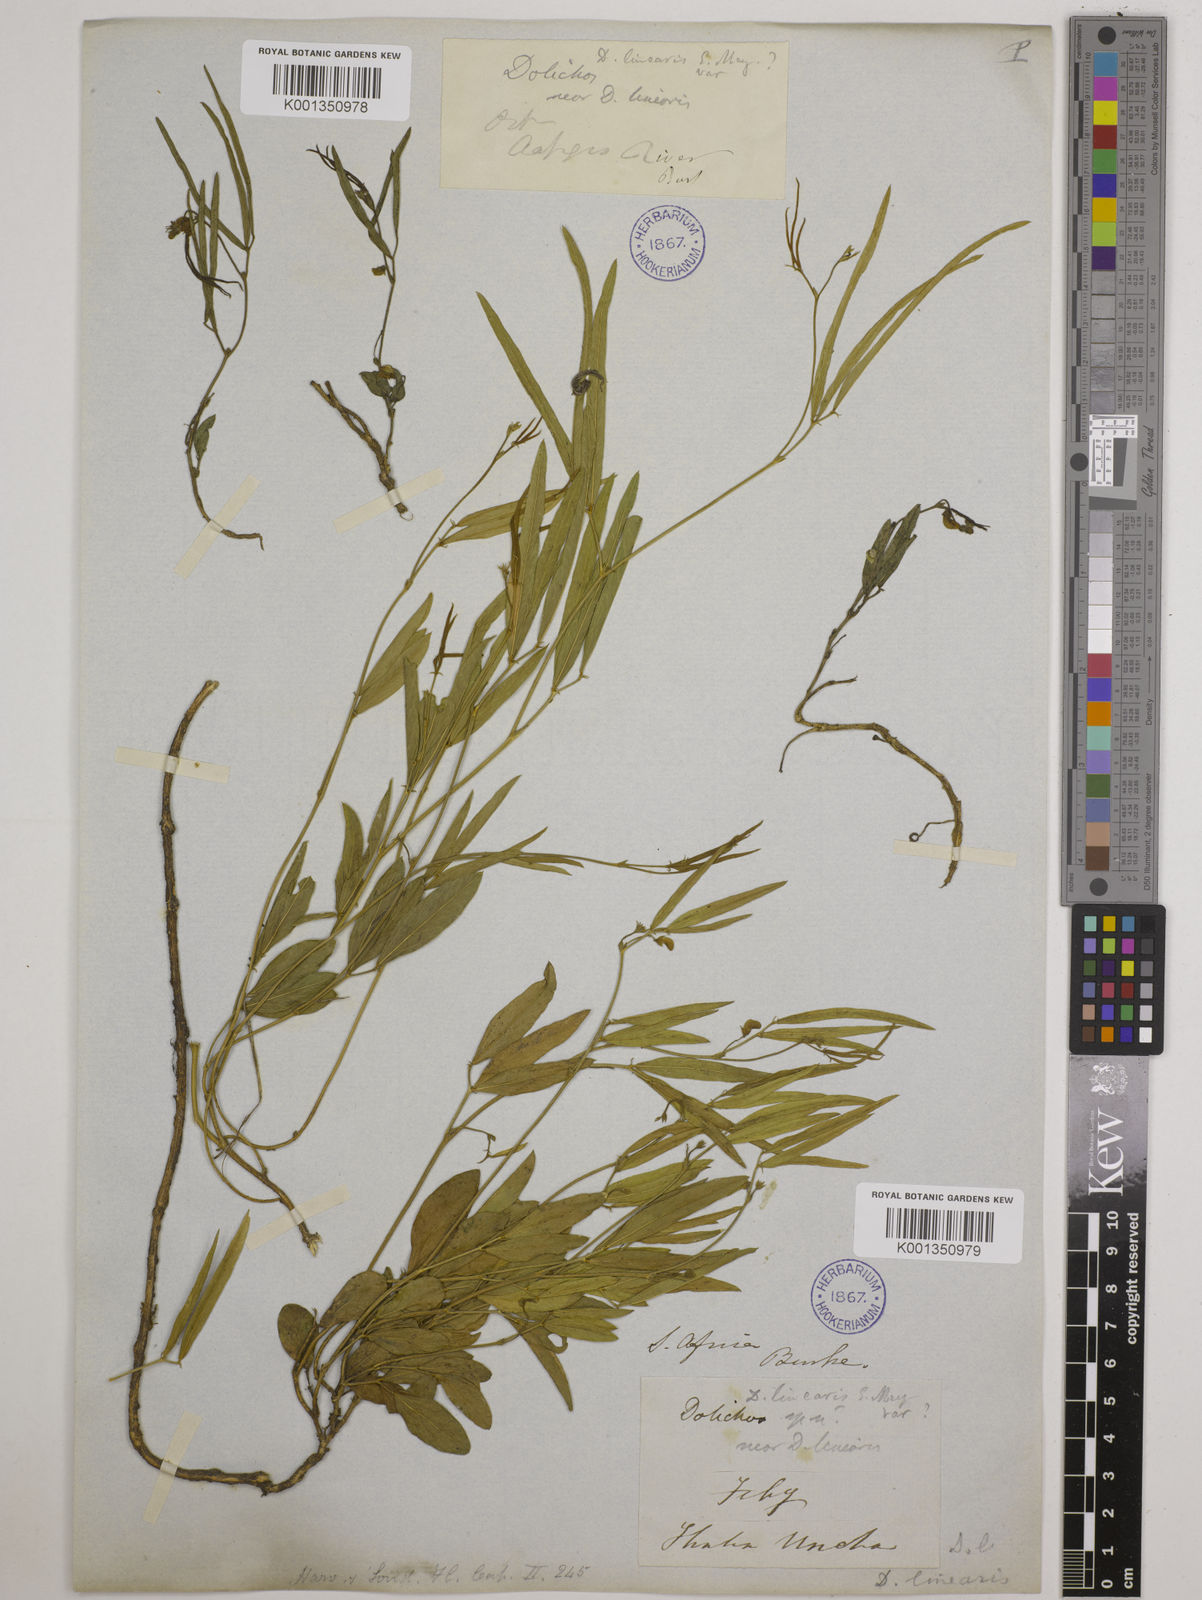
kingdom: Plantae
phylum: Tracheophyta
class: Magnoliopsida
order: Fabales
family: Fabaceae
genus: Dolichos
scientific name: Dolichos
